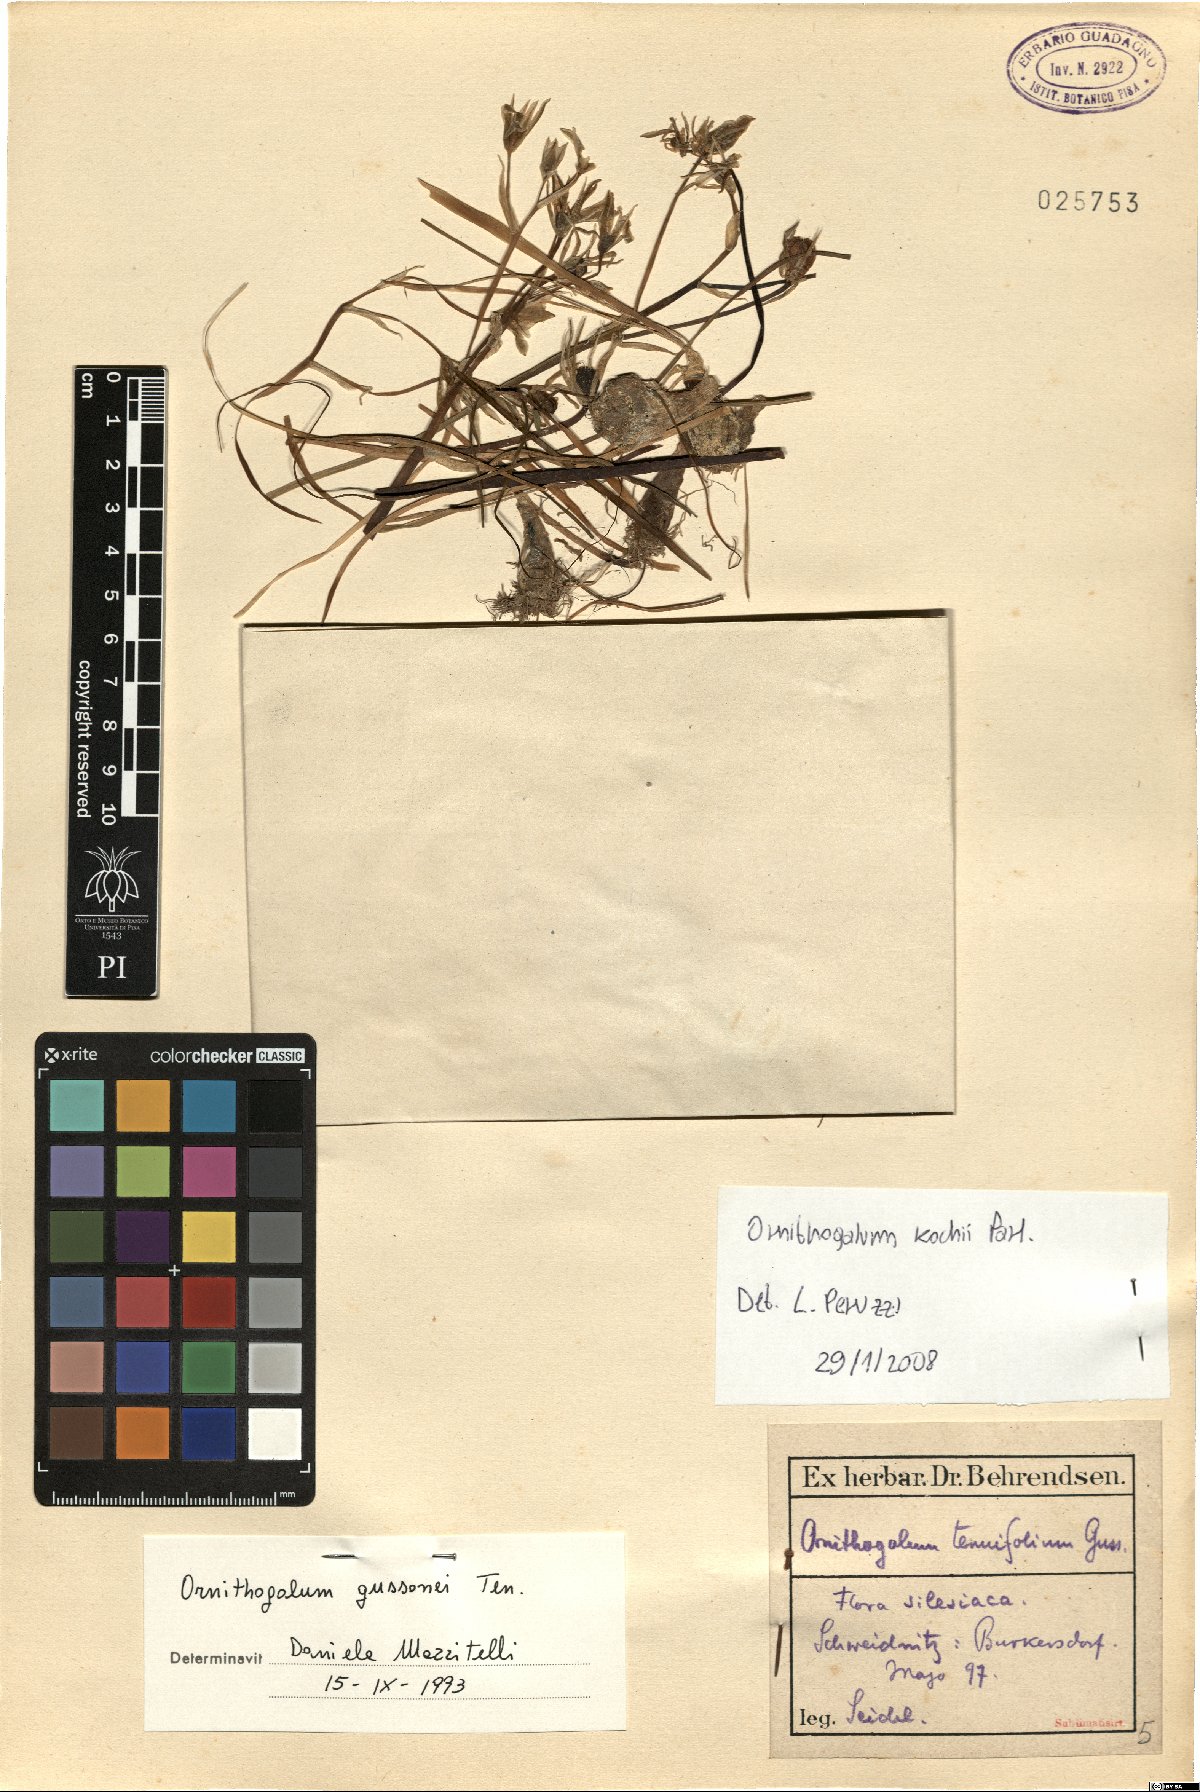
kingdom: Plantae
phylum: Tracheophyta
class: Liliopsida
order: Asparagales
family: Asparagaceae
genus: Ornithogalum
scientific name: Ornithogalum orthophyllum
